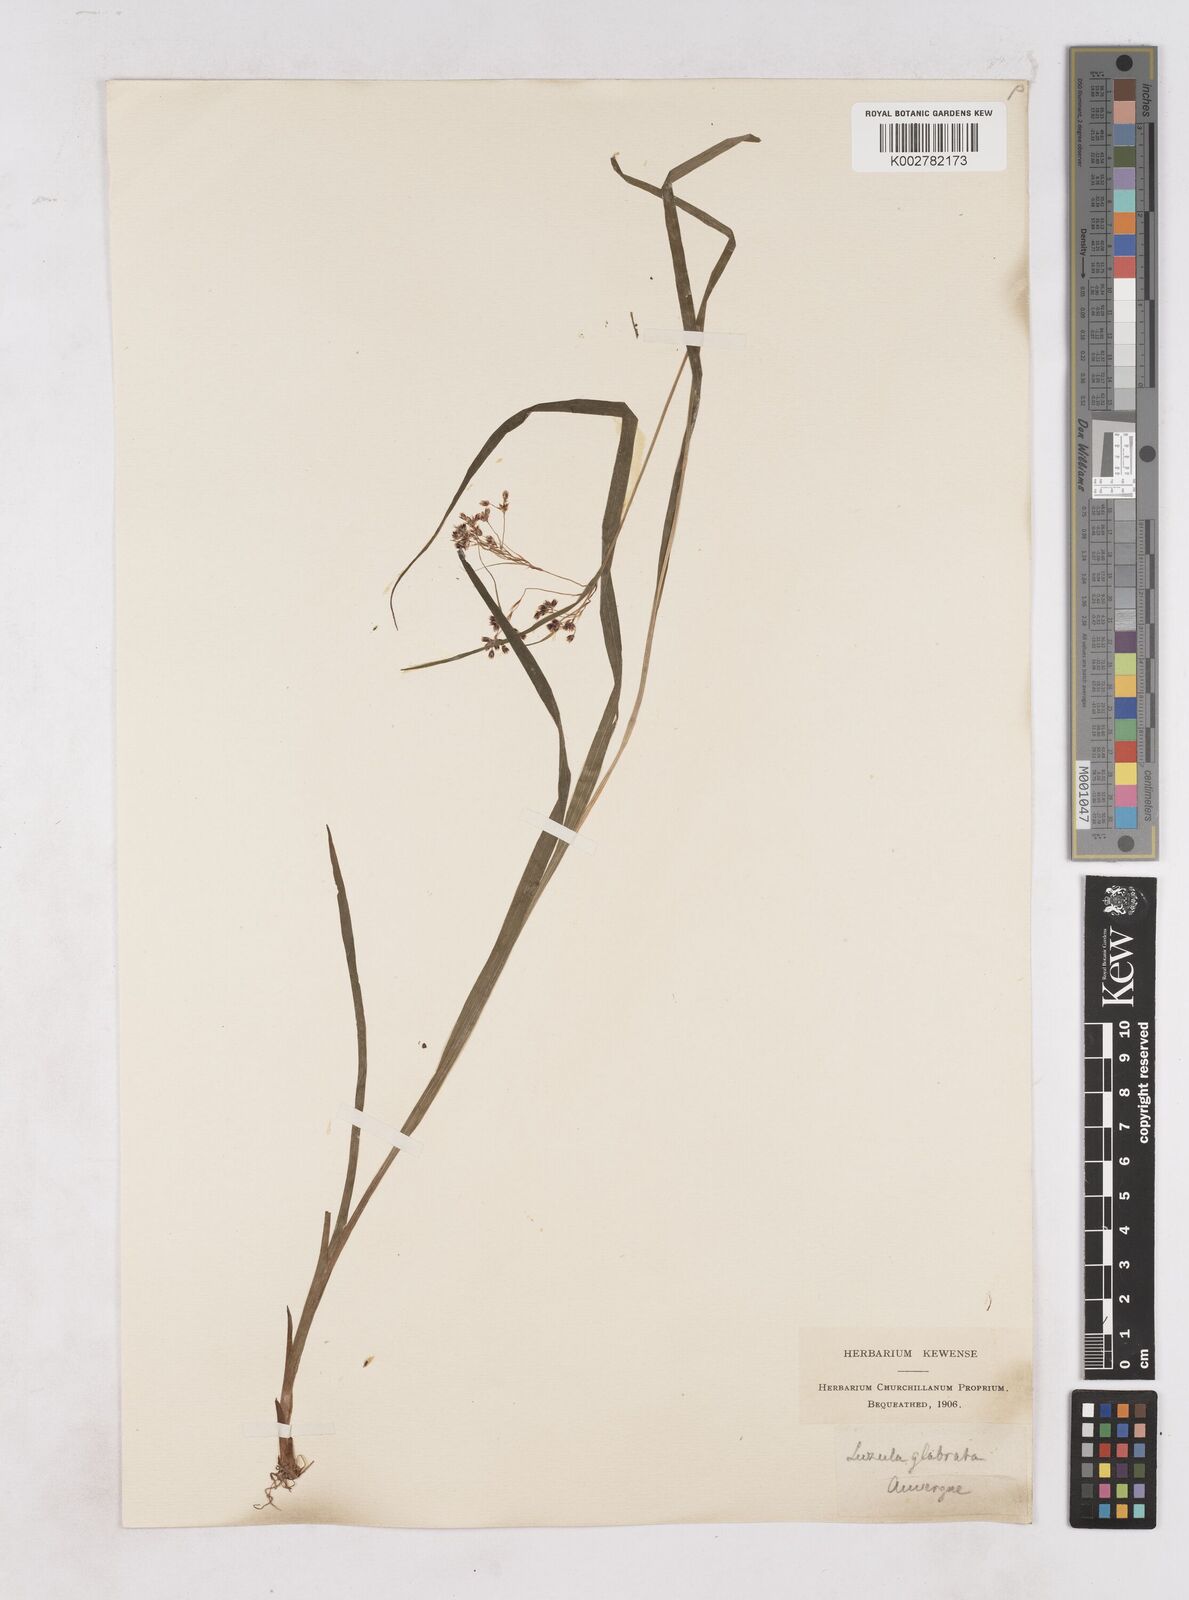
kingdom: Plantae
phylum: Tracheophyta
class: Liliopsida
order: Poales
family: Juncaceae
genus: Luzula
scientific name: Luzula glabrata
